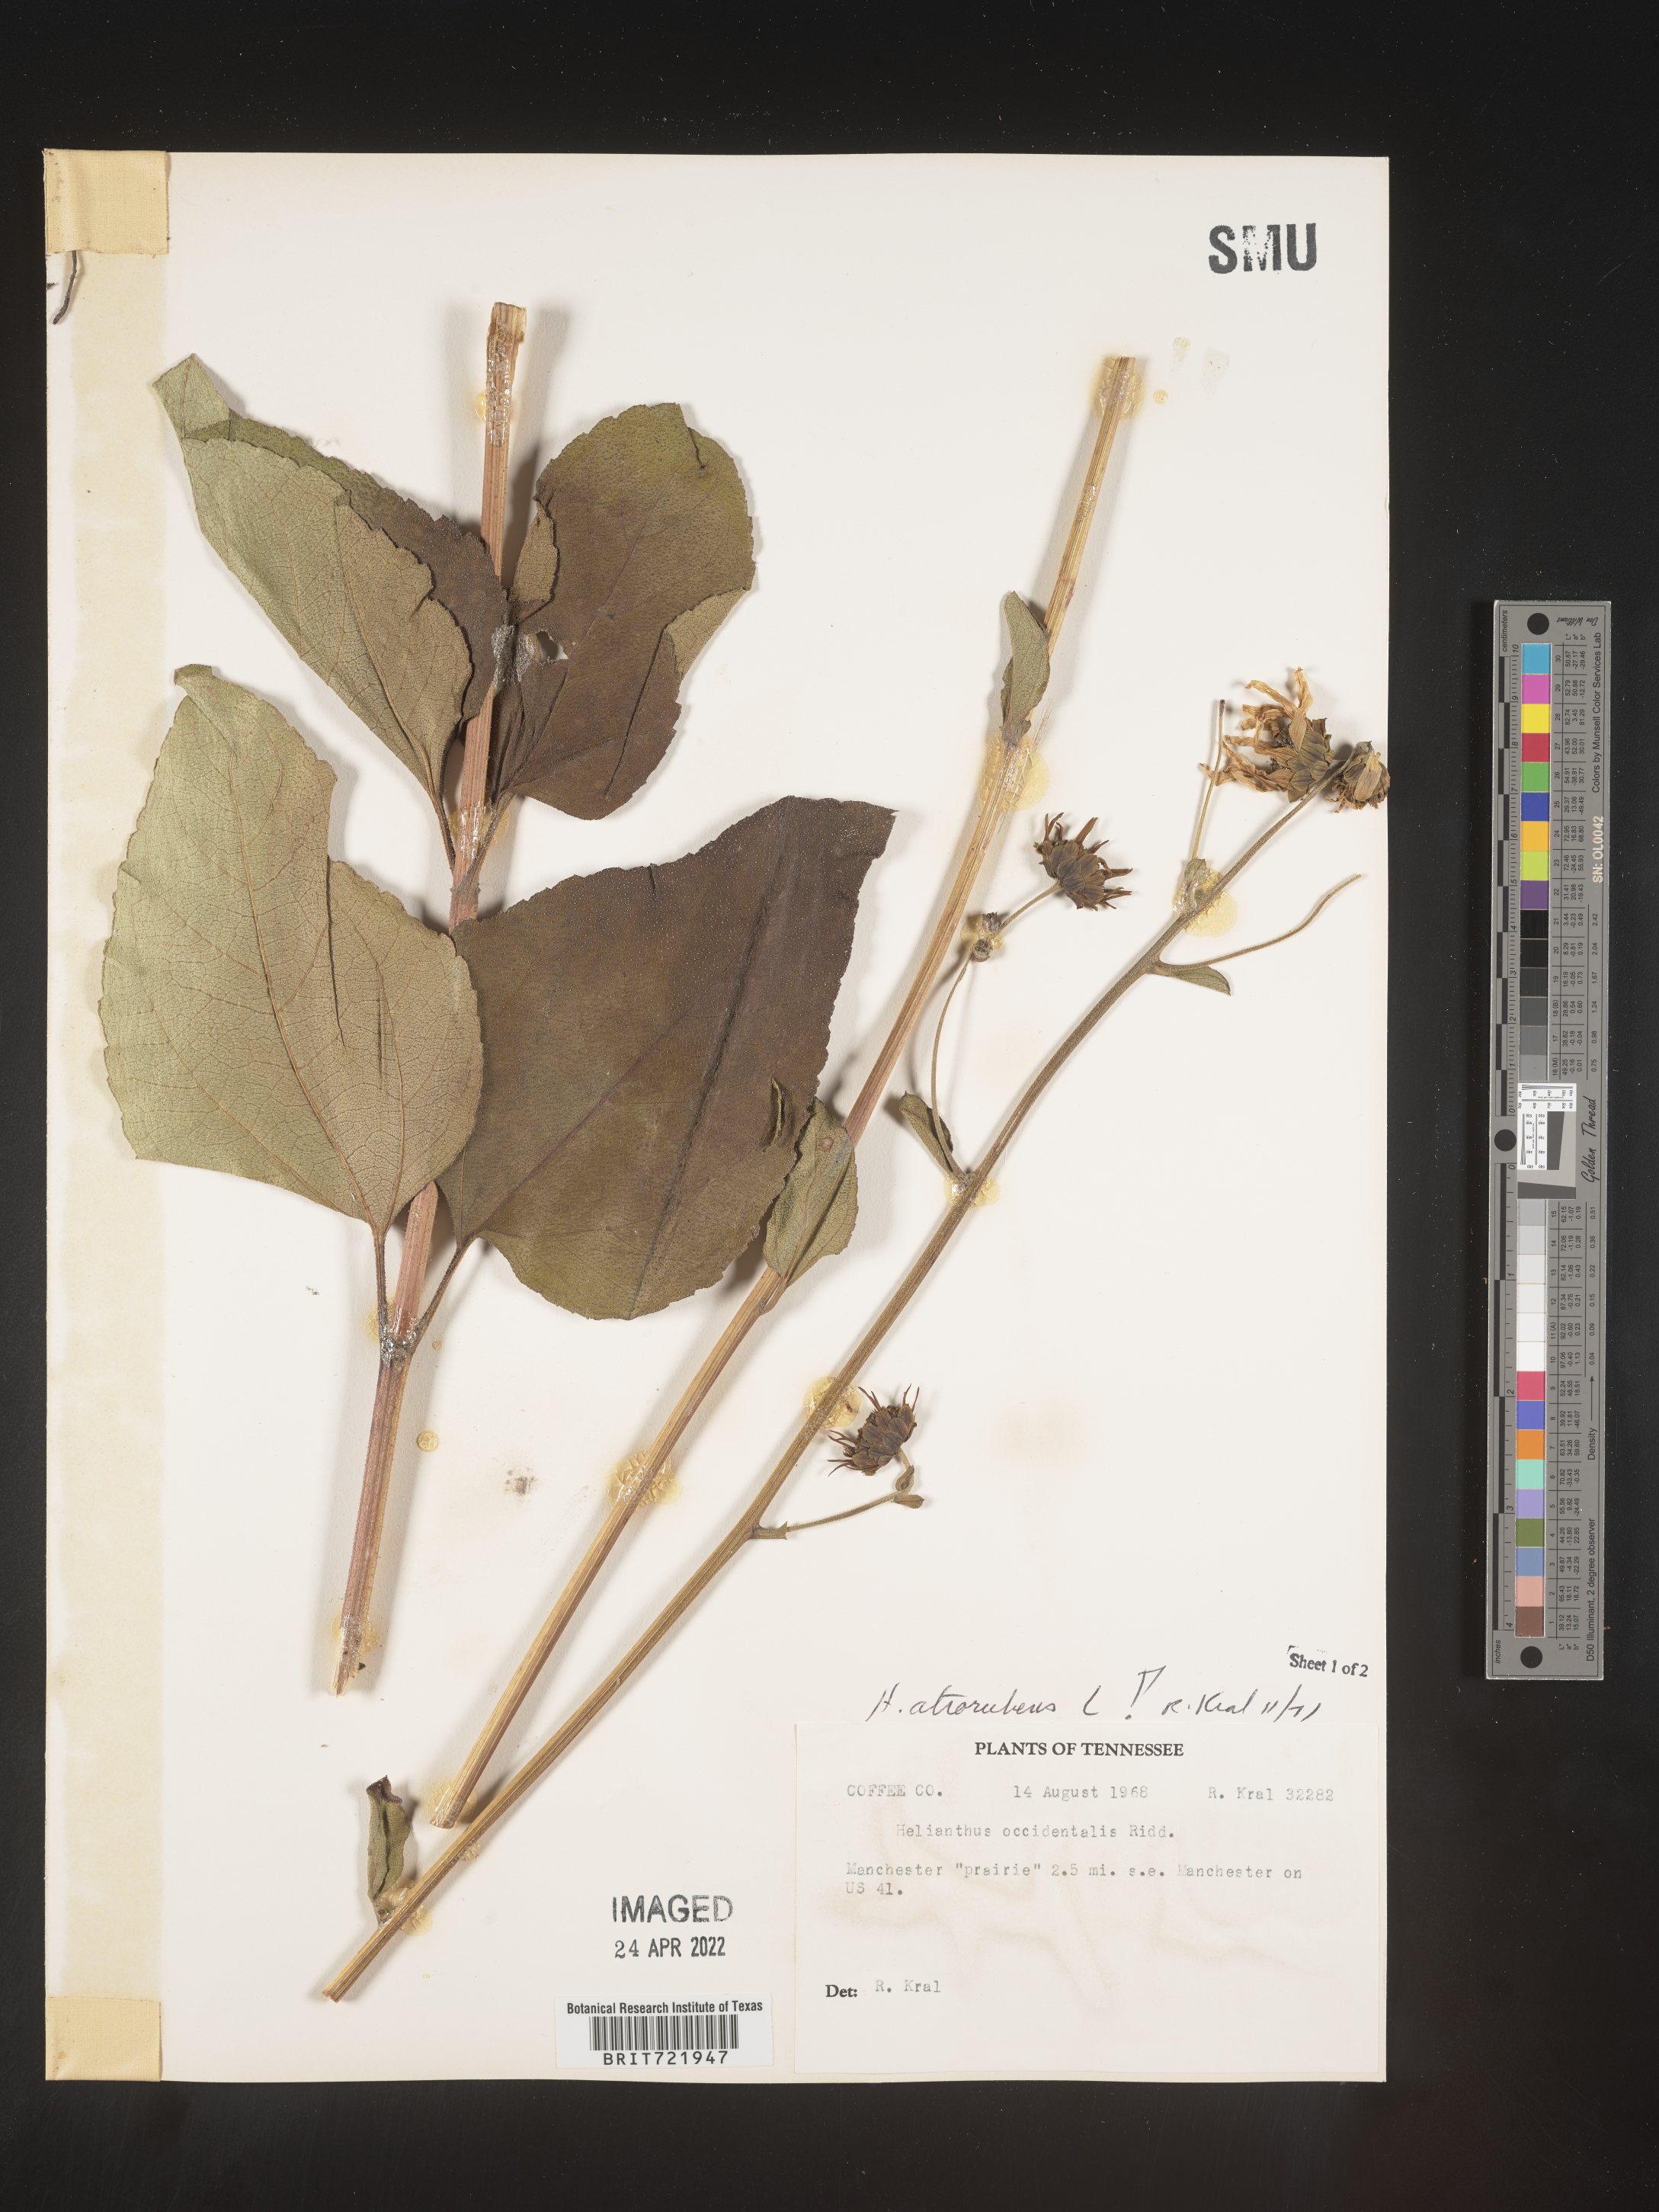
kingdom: Plantae
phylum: Tracheophyta
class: Magnoliopsida
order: Asterales
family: Asteraceae
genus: Helianthus
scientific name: Helianthus atrorubens
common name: Dark-eyed sunflower
